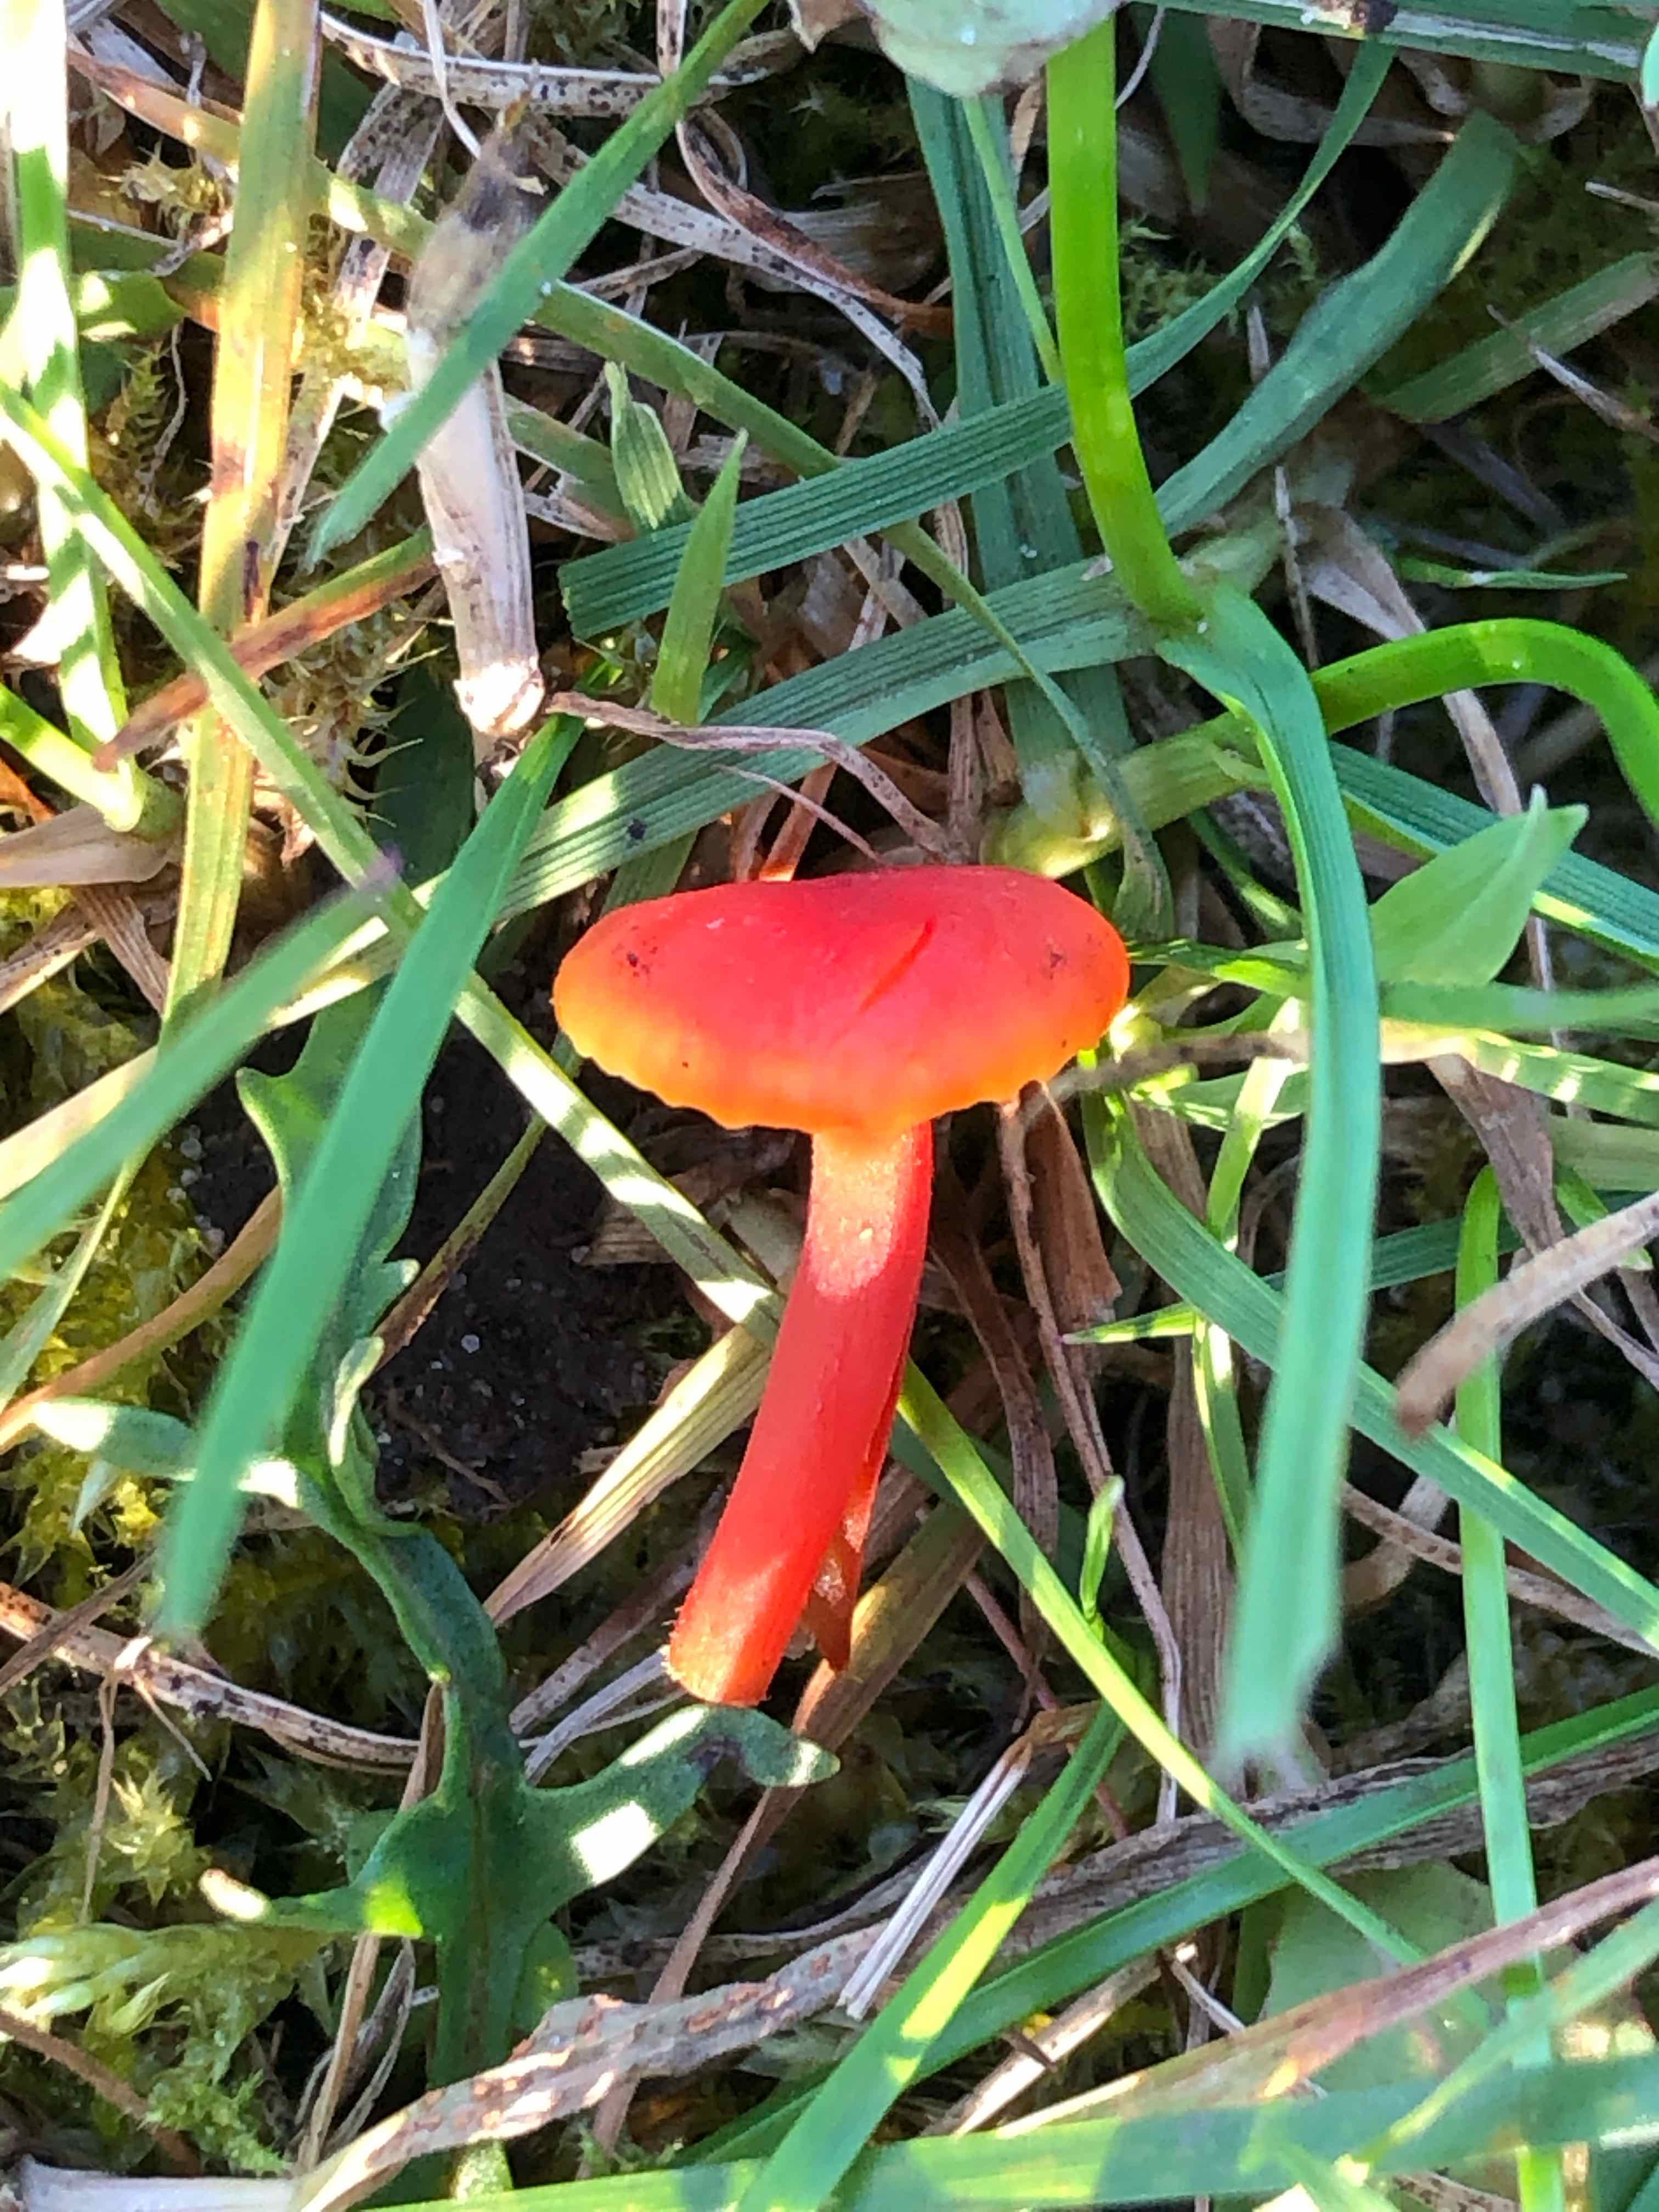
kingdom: Fungi
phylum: Basidiomycota
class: Agaricomycetes
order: Agaricales
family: Hygrophoraceae
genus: Hygrocybe
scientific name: Hygrocybe miniata
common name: mønje-vokshat
